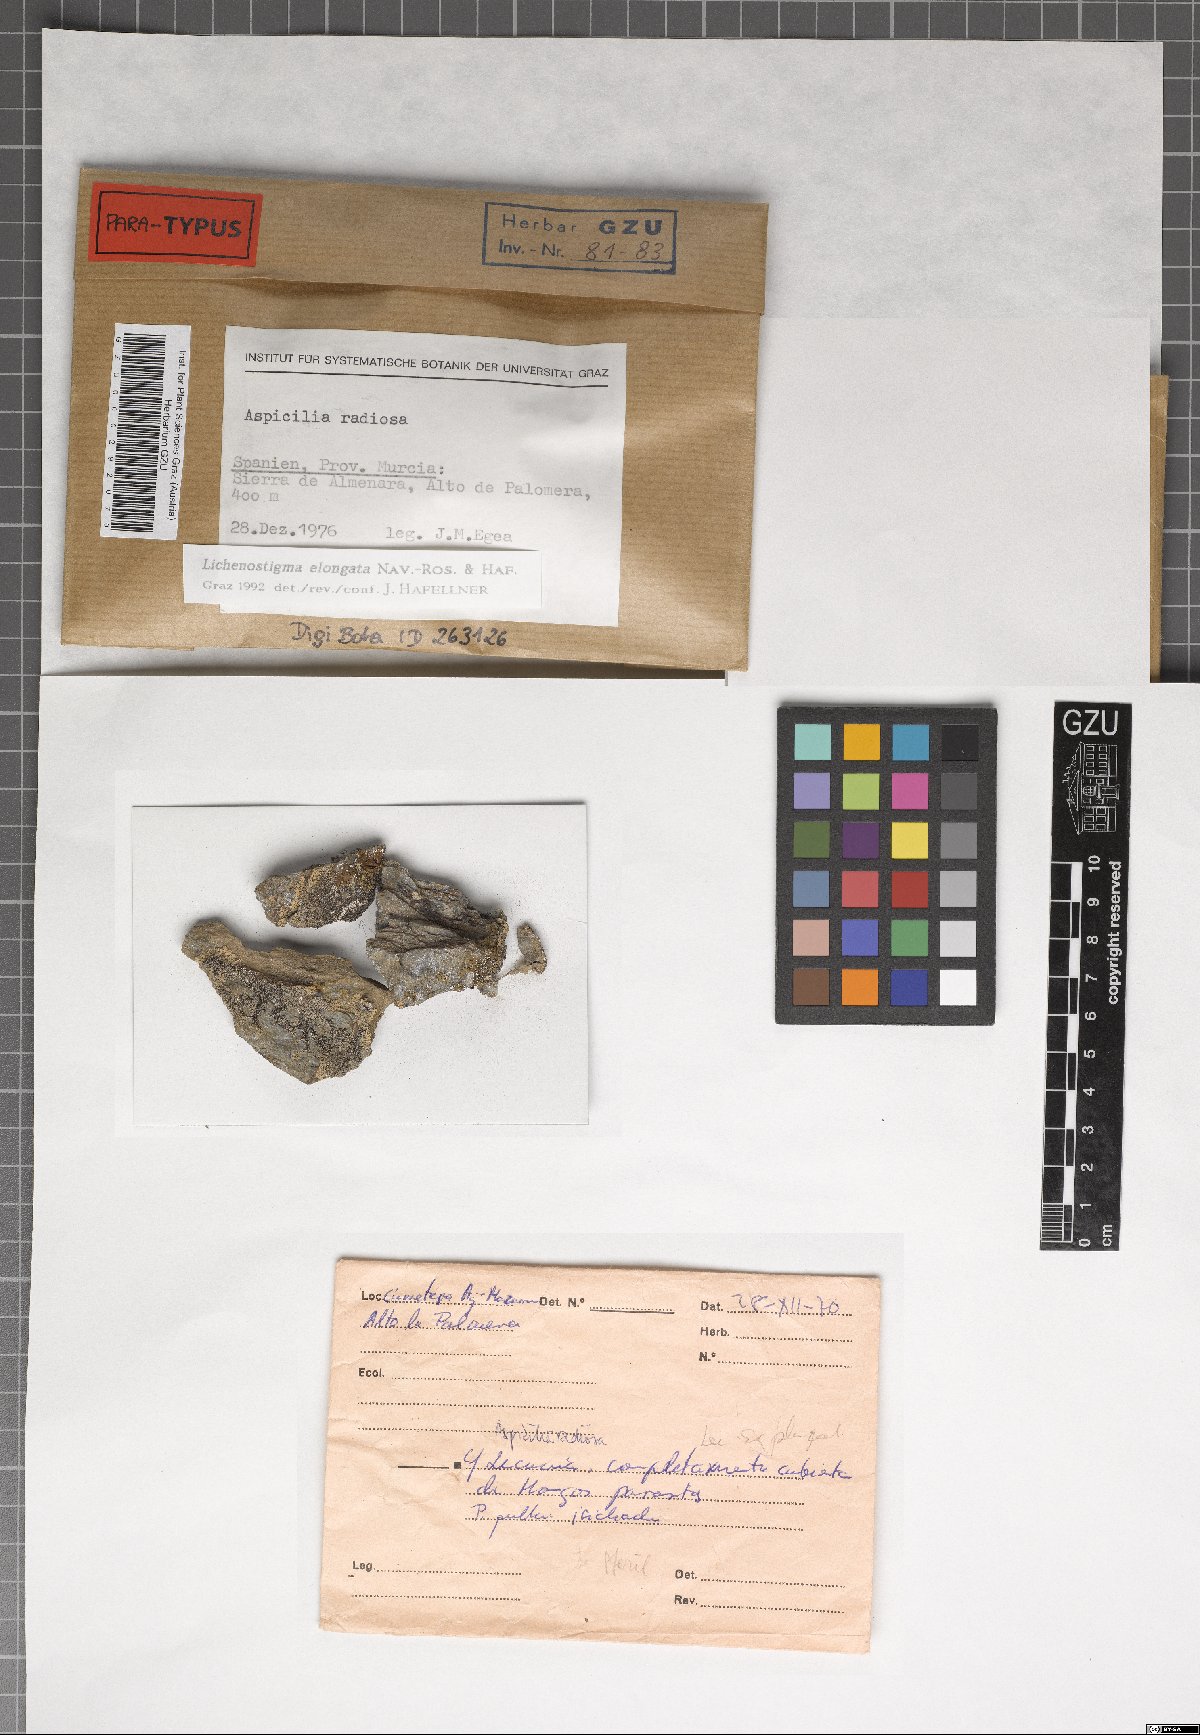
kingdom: Fungi
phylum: Ascomycota
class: Arthoniomycetes
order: Lichenostigmatales
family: Phaeococcomycetaceae
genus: Lichenostigma
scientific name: Lichenostigma elongatum
